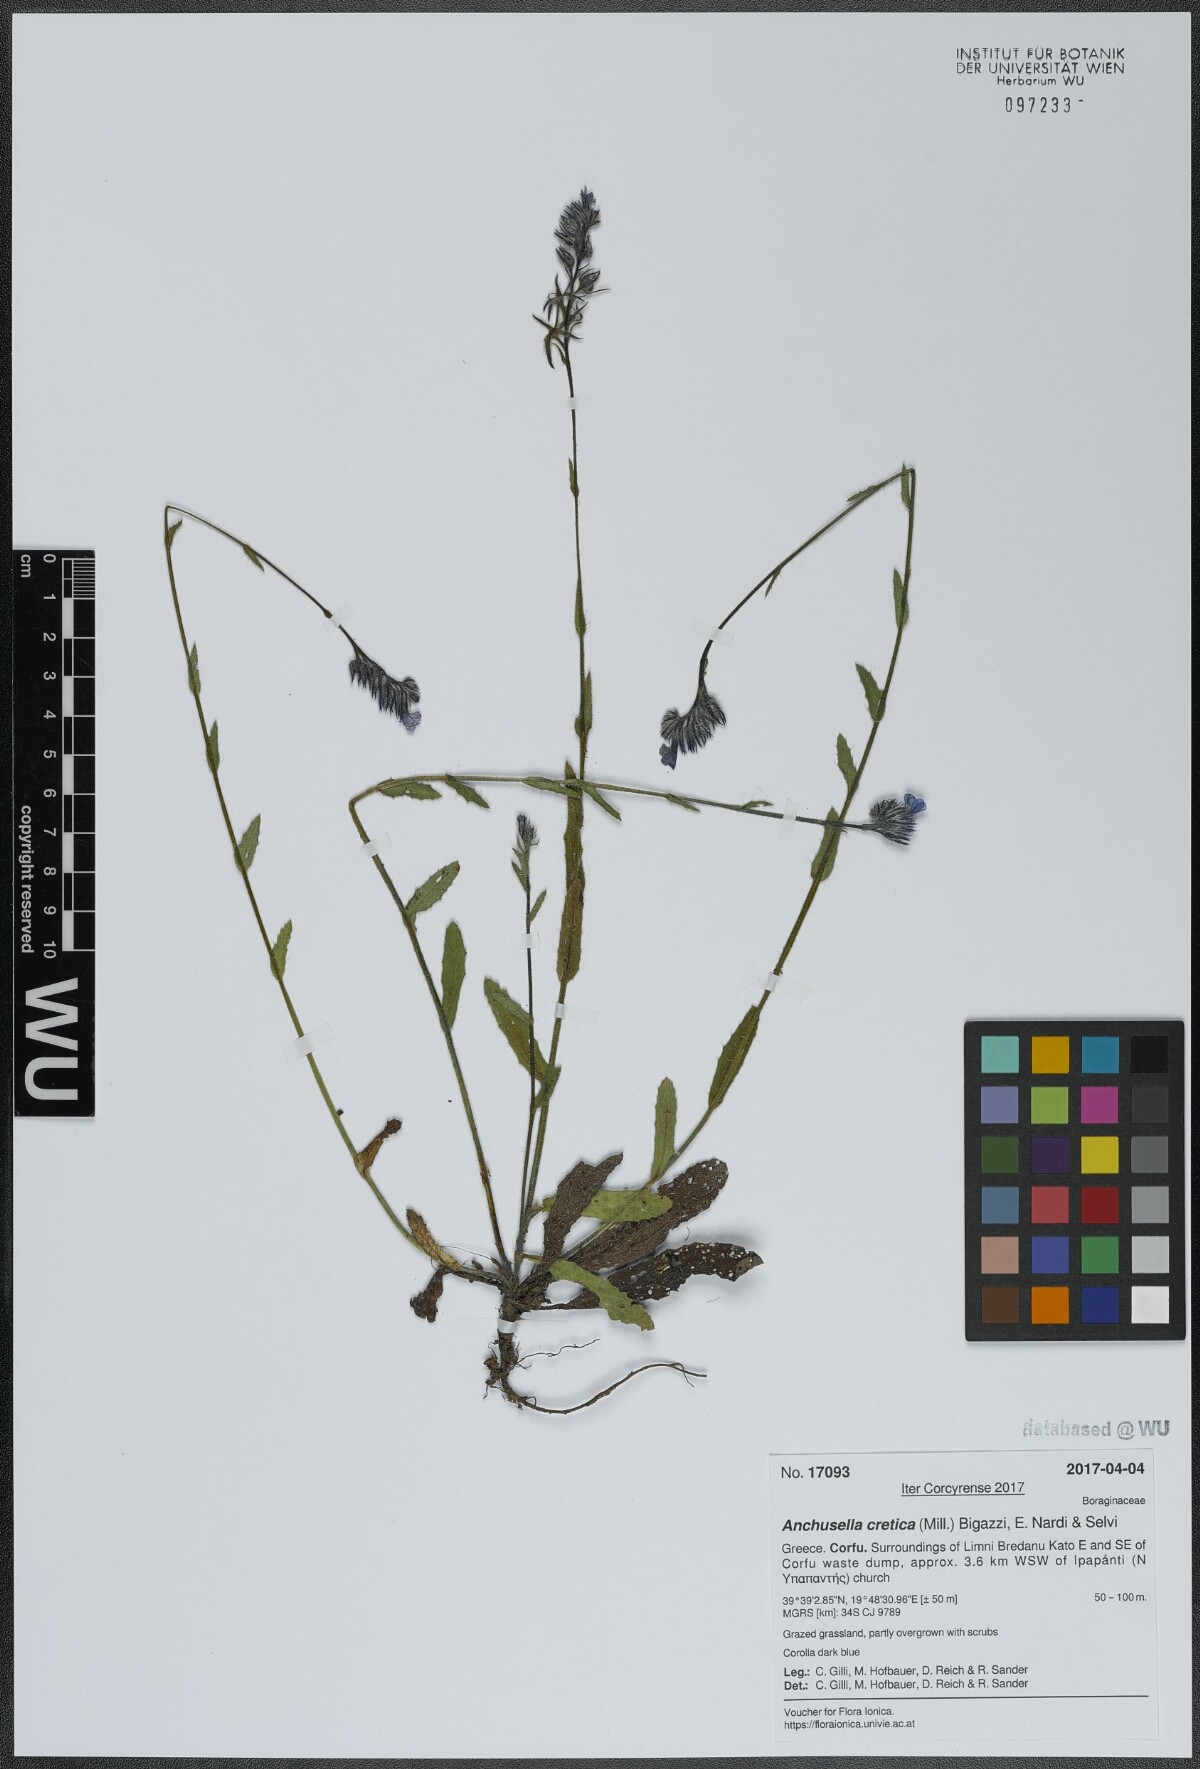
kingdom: Plantae
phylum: Tracheophyta
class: Magnoliopsida
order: Boraginales
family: Boraginaceae
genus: Anchusella
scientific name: Anchusella cretica
